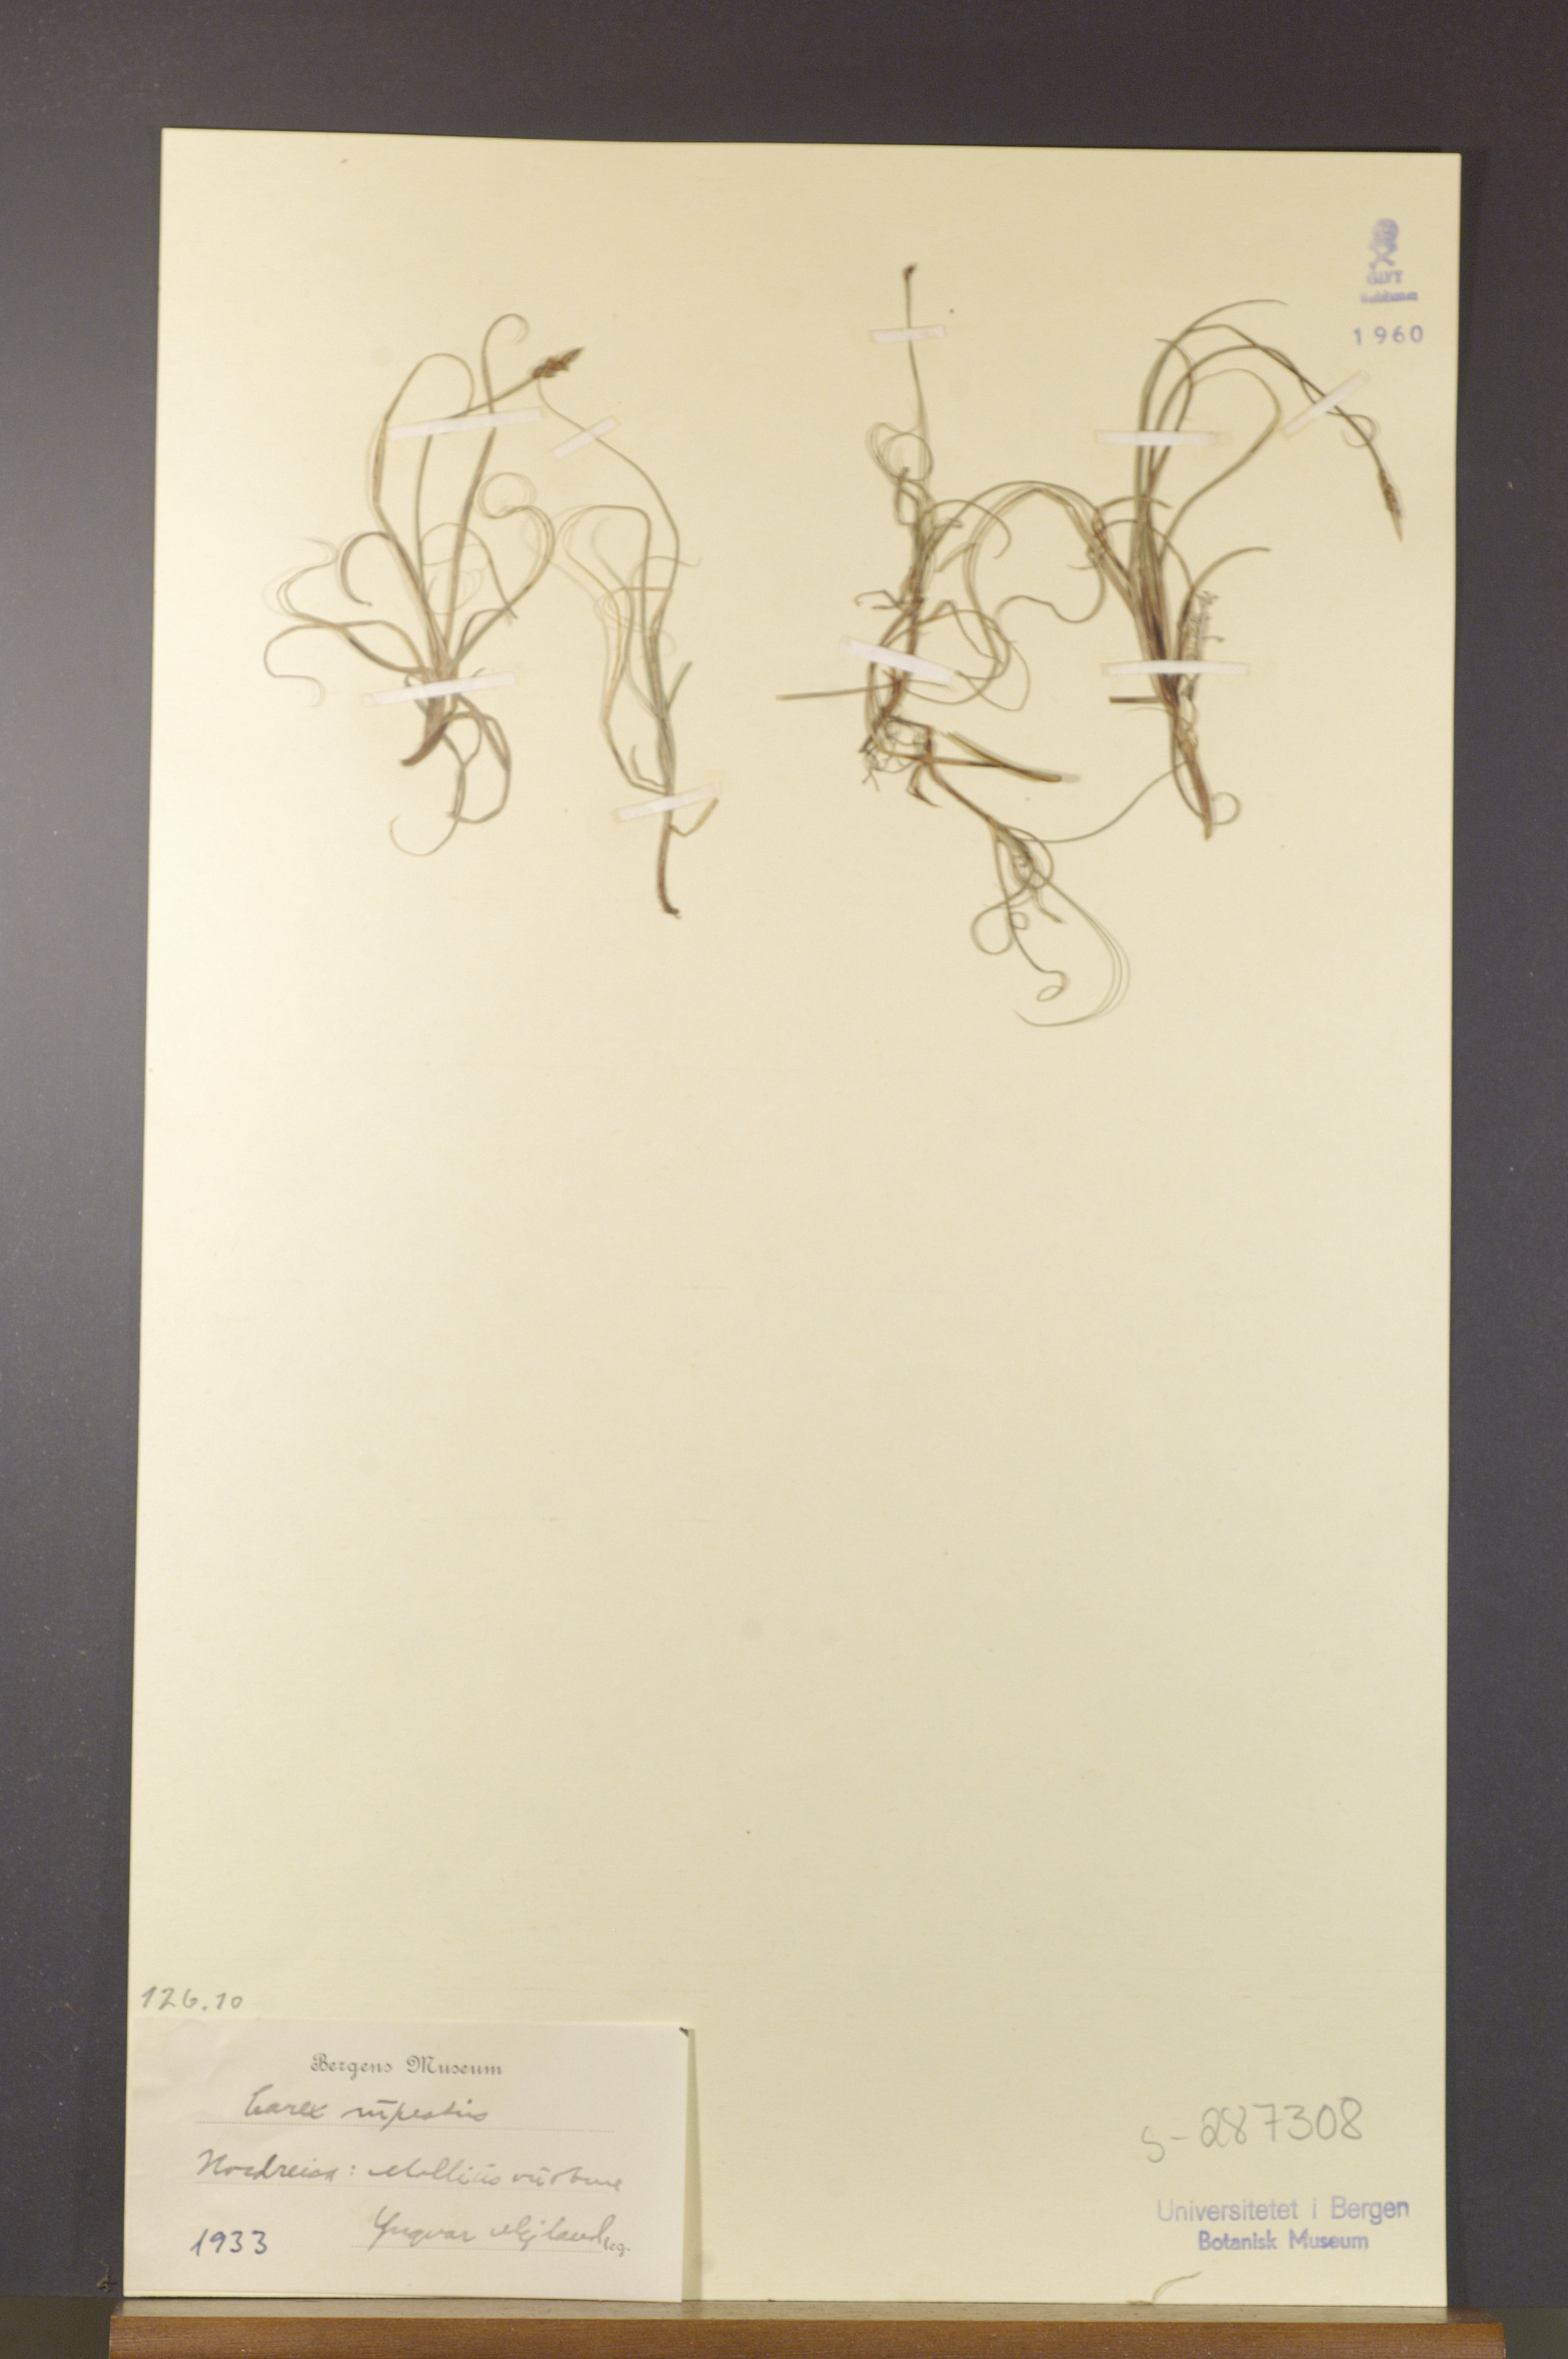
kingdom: Plantae
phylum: Tracheophyta
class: Liliopsida
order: Poales
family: Cyperaceae
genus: Carex
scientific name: Carex rupestris
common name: Rock sedge
